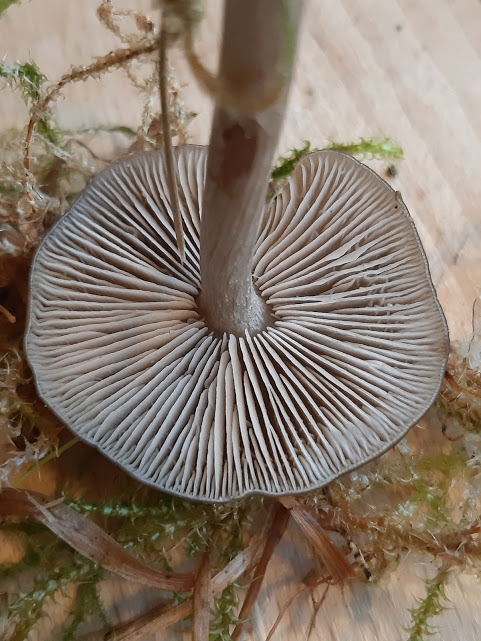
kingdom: Fungi
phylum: Basidiomycota
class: Agaricomycetes
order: Agaricales
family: Entolomataceae
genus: Entocybe
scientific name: Entocybe turbida
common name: plantage-rødblad
